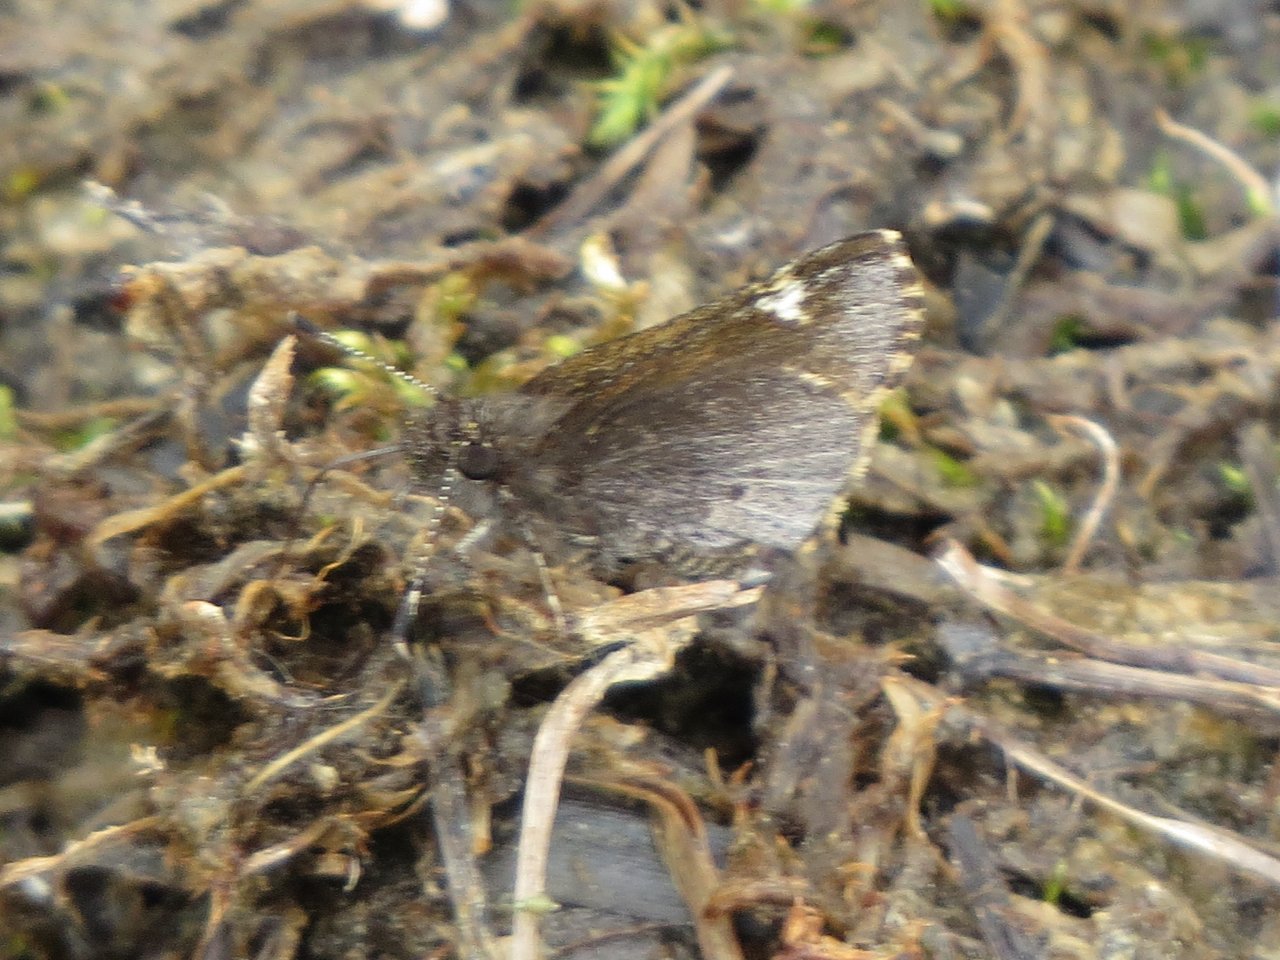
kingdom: Animalia
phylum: Arthropoda
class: Insecta
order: Lepidoptera
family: Hesperiidae
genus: Mastor
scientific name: Mastor vialis
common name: Common Roadside-Skipper
